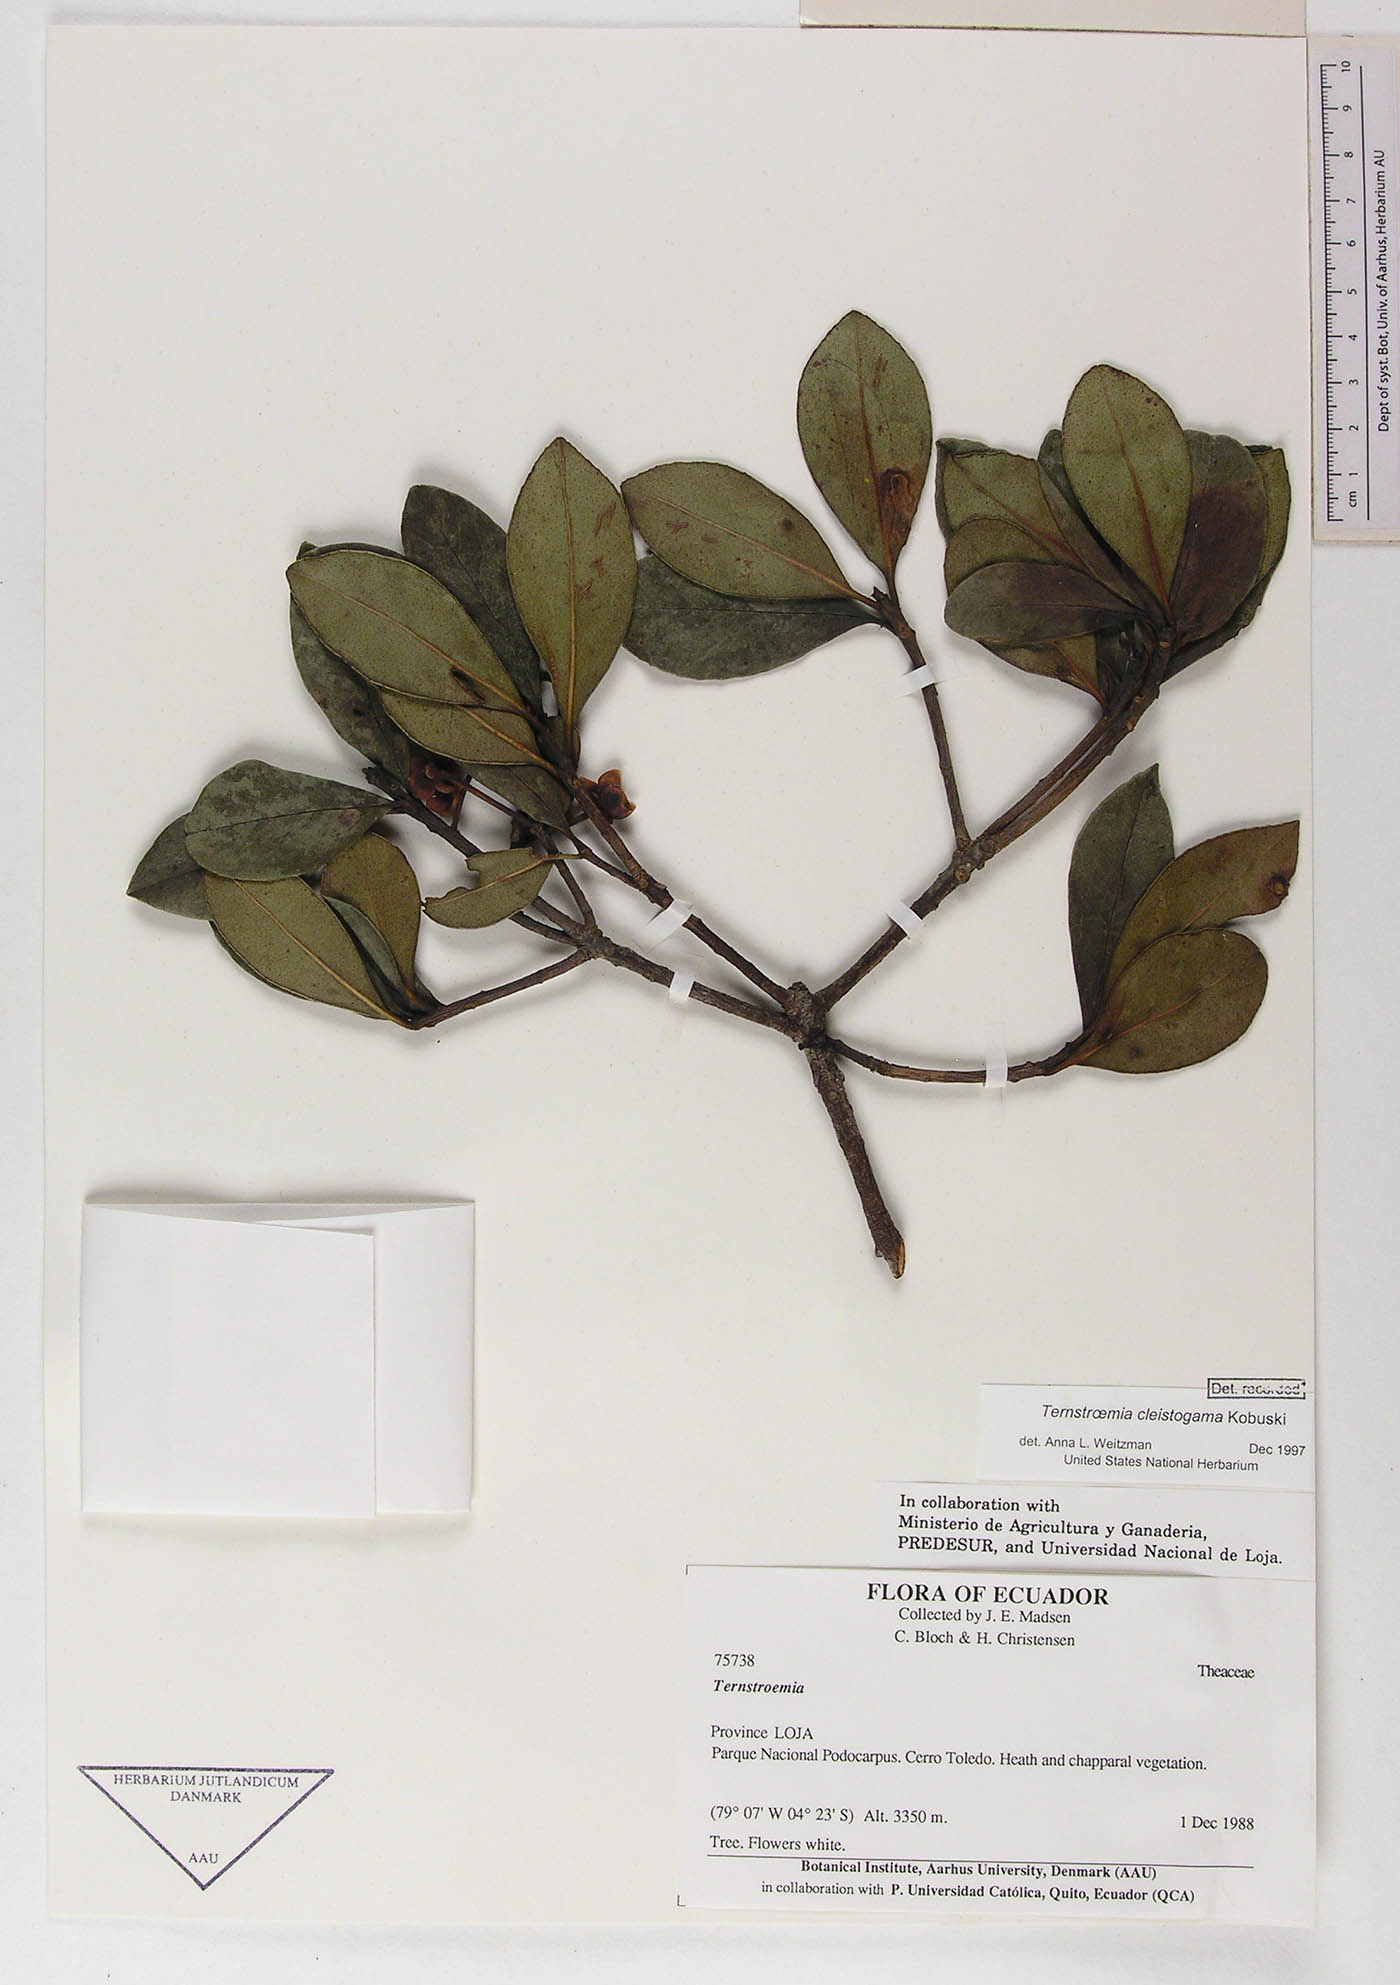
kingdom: Plantae
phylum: Tracheophyta
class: Magnoliopsida
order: Ericales
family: Pentaphylacaceae
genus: Ternstroemia
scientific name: Ternstroemia cleistogama
